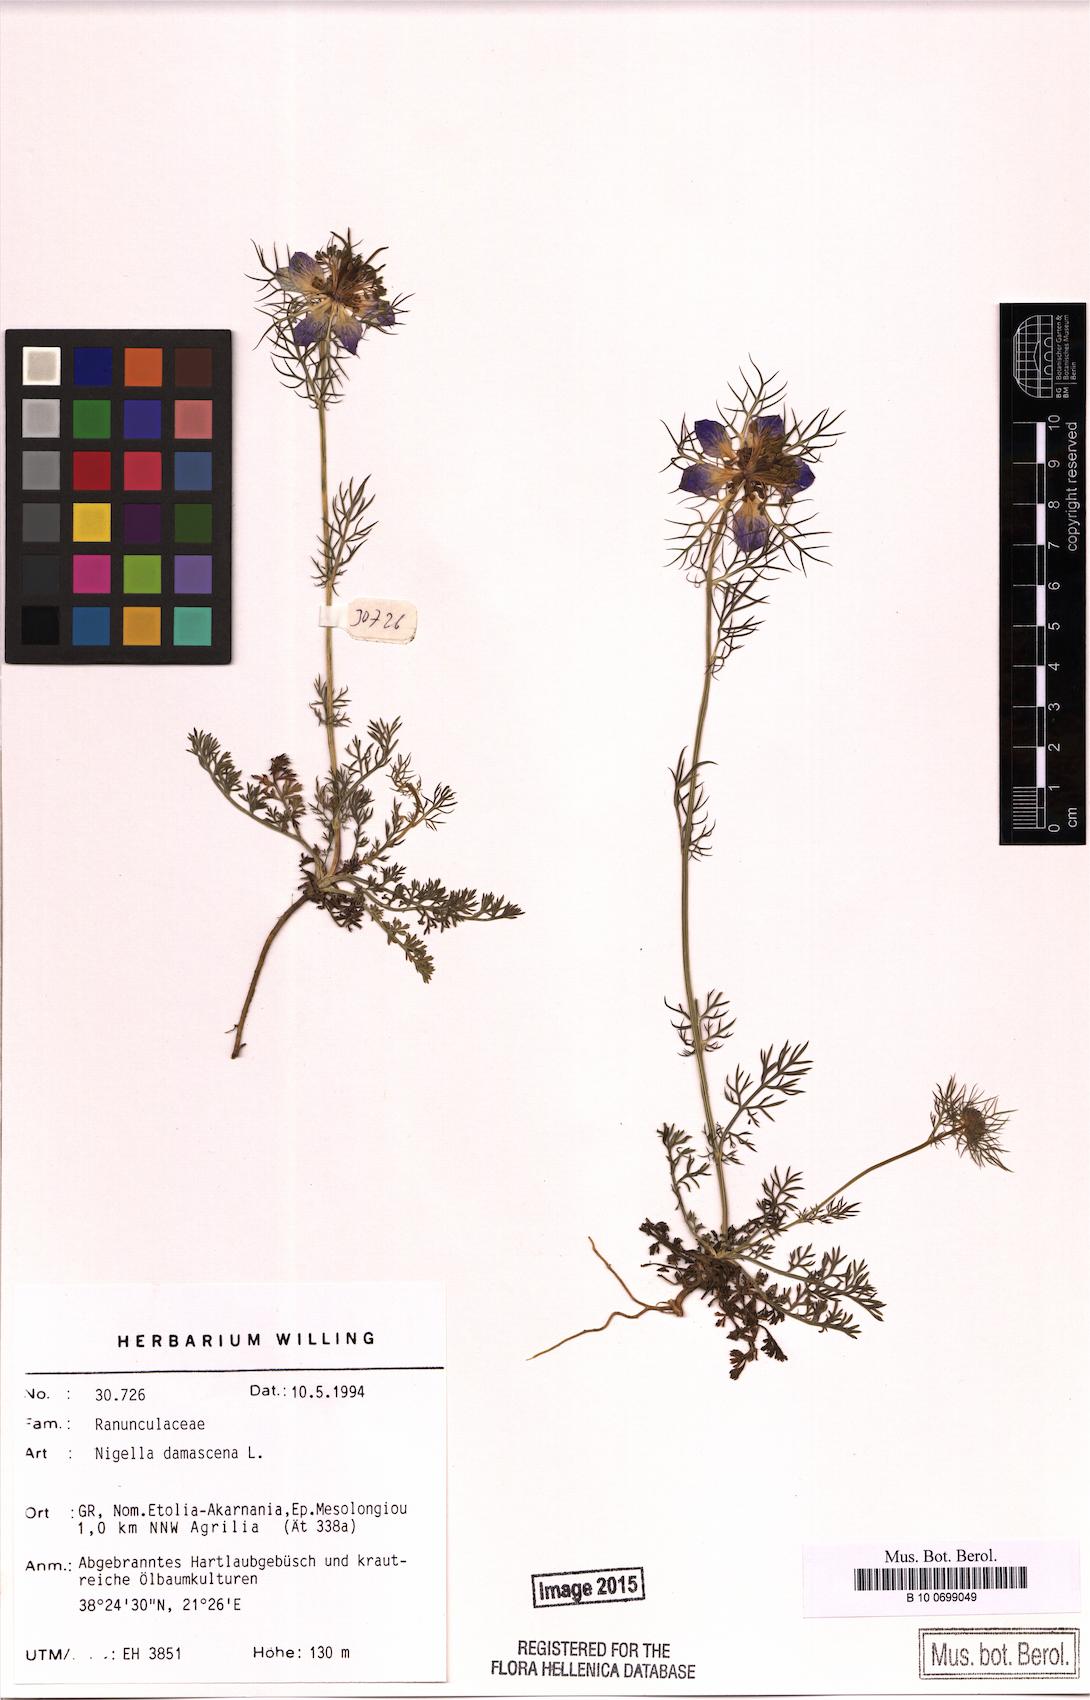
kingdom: Plantae
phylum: Tracheophyta
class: Magnoliopsida
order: Ranunculales
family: Ranunculaceae
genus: Nigella
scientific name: Nigella damascena
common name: Love-in-a-mist
